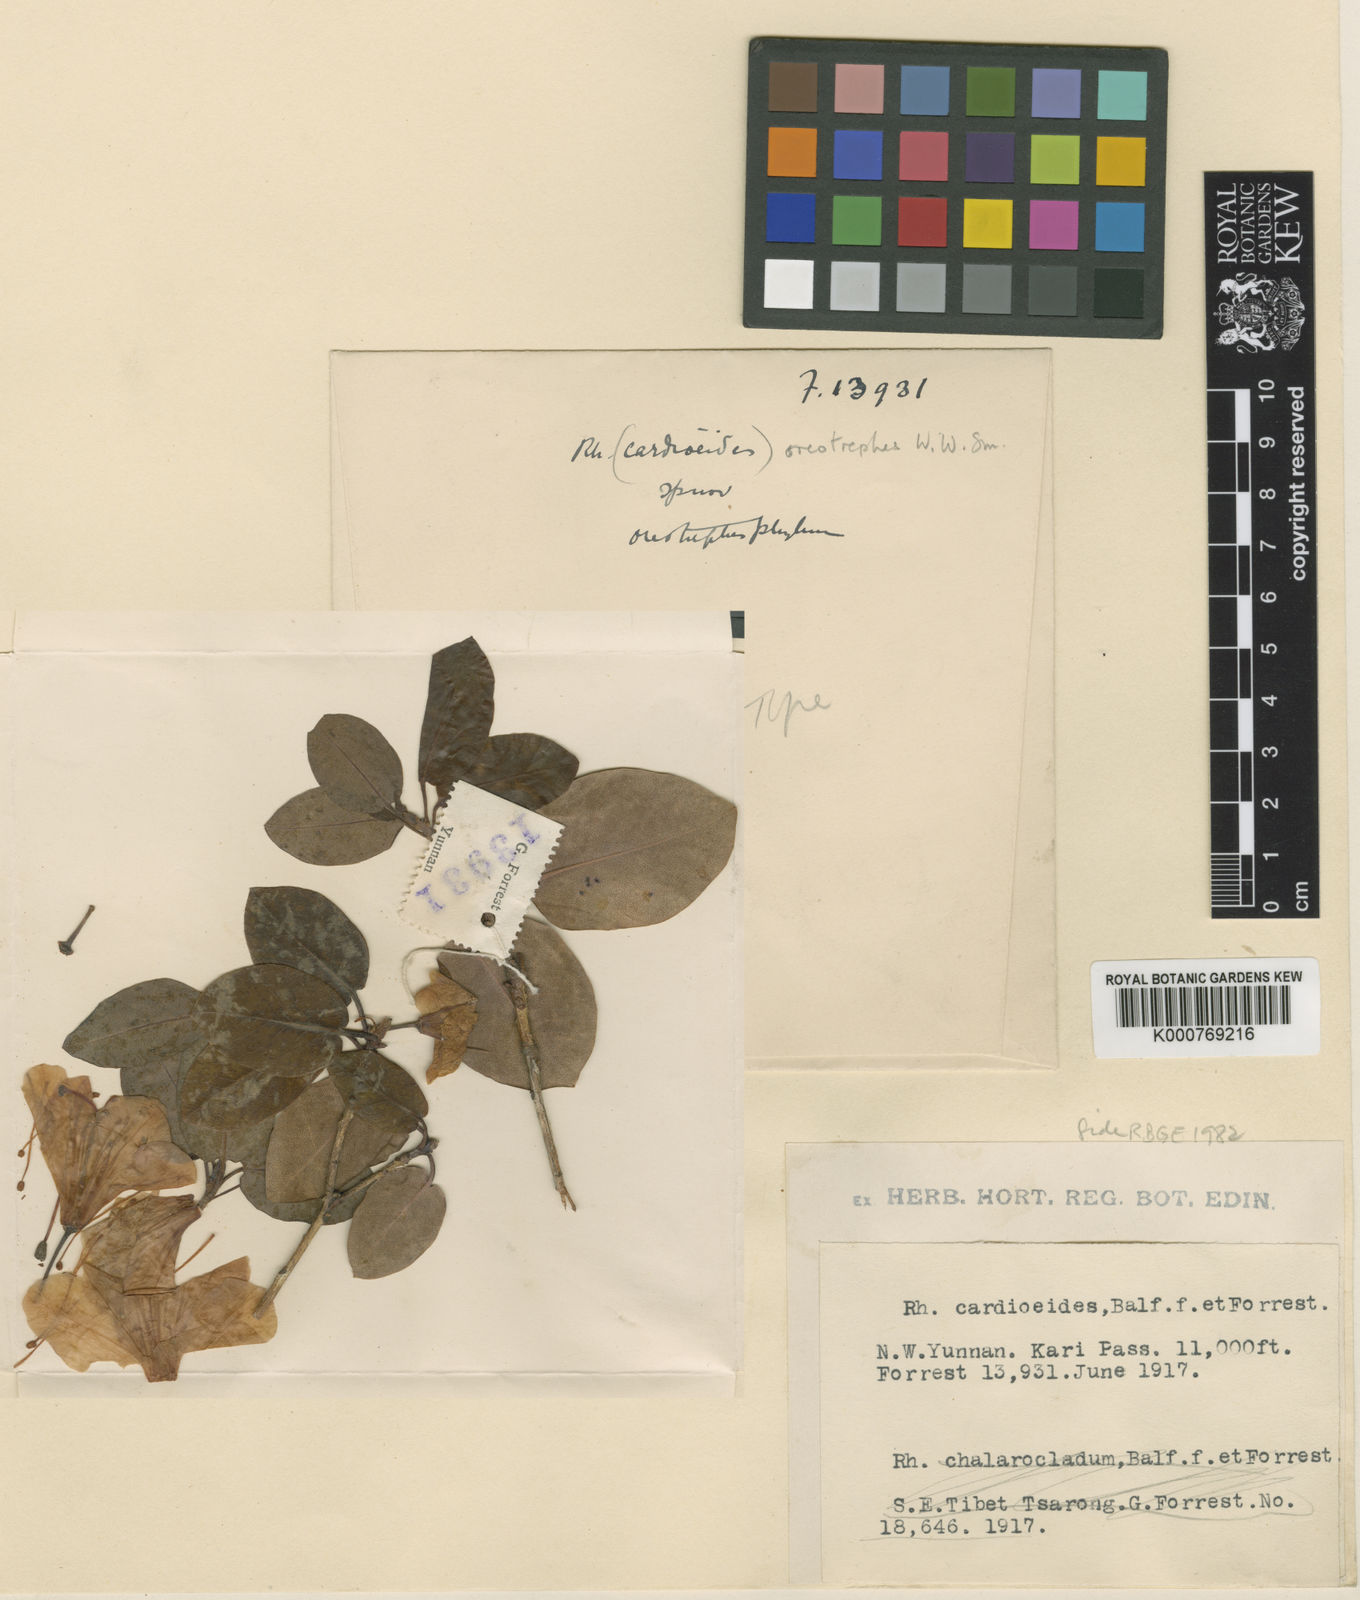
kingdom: Plantae
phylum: Tracheophyta
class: Magnoliopsida
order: Ericales
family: Ericaceae
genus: Rhododendron
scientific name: Rhododendron oreotrephes
